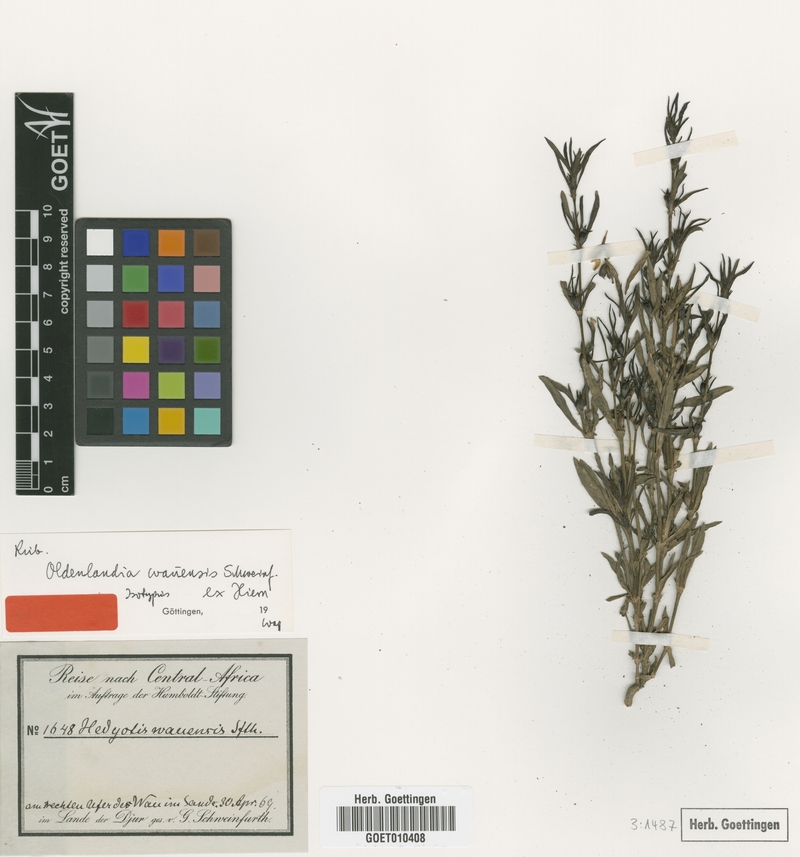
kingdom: Plantae
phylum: Tracheophyta
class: Magnoliopsida
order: Gentianales
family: Rubiaceae
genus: Oldenlandia
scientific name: Oldenlandia wauensis
